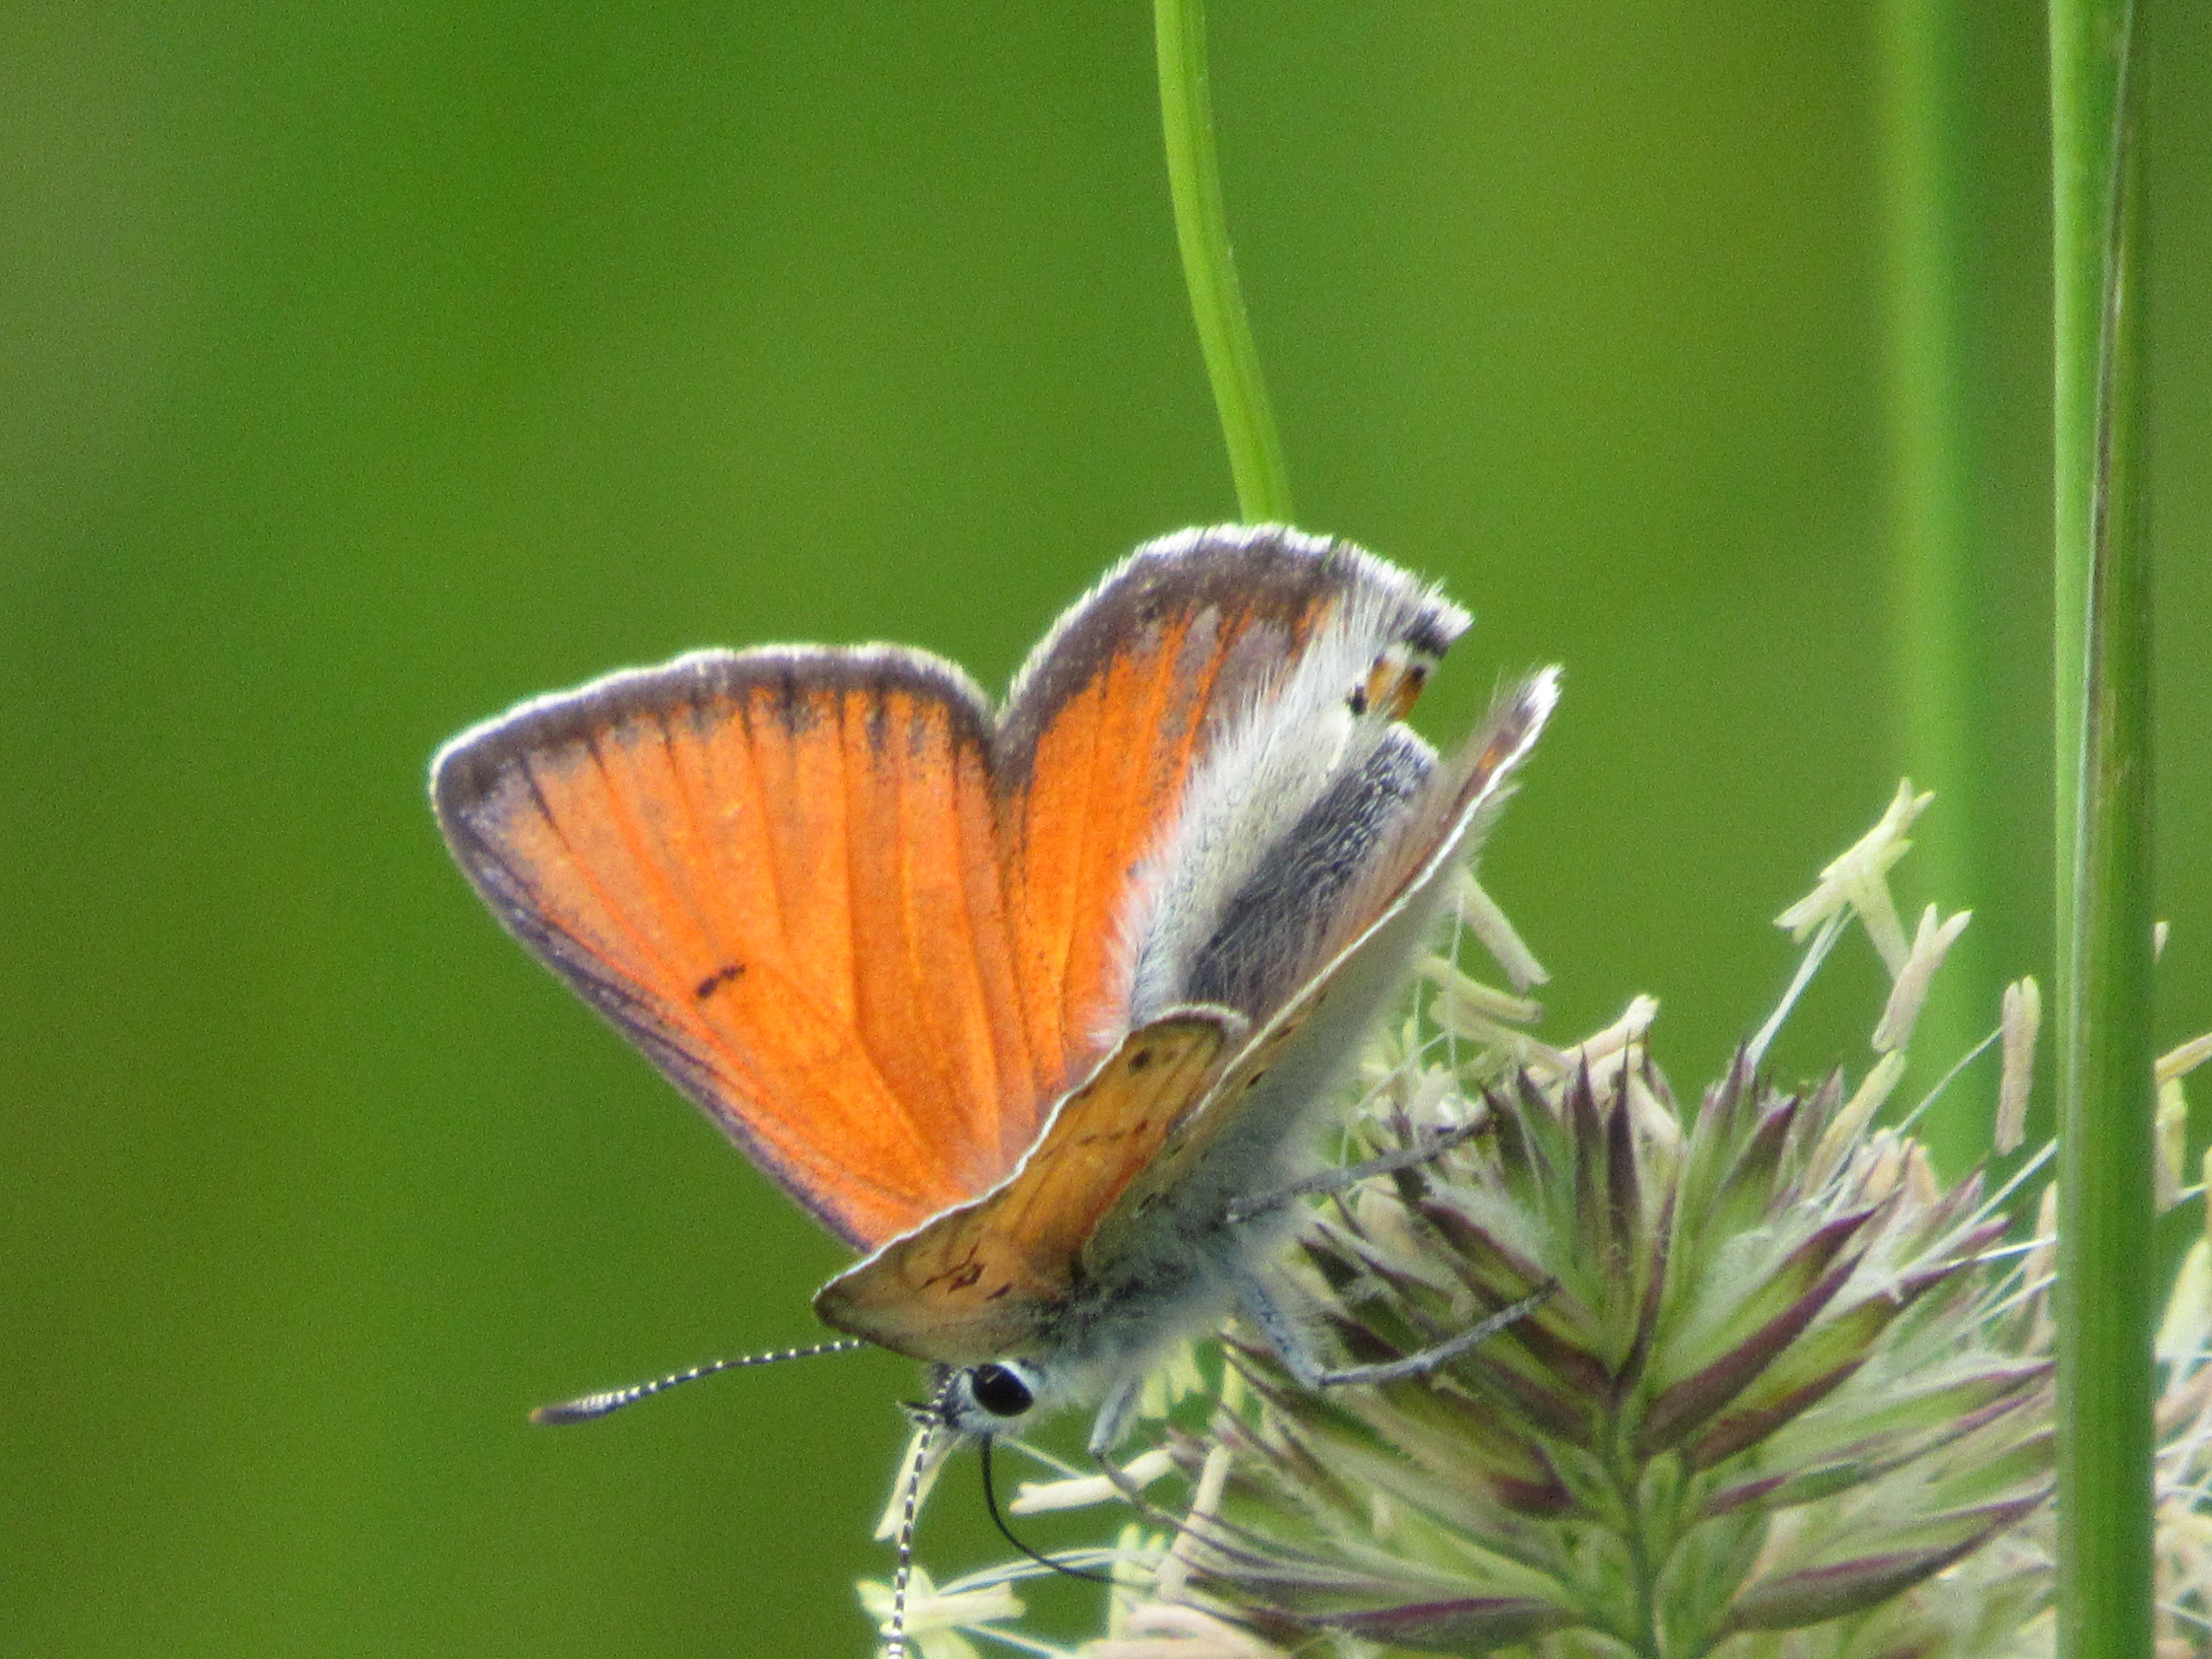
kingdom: Animalia
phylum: Arthropoda
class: Insecta
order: Lepidoptera
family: Lycaenidae
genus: Palaeochrysophanus
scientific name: Palaeochrysophanus hippothoe
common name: Violetrandet ildfugl
